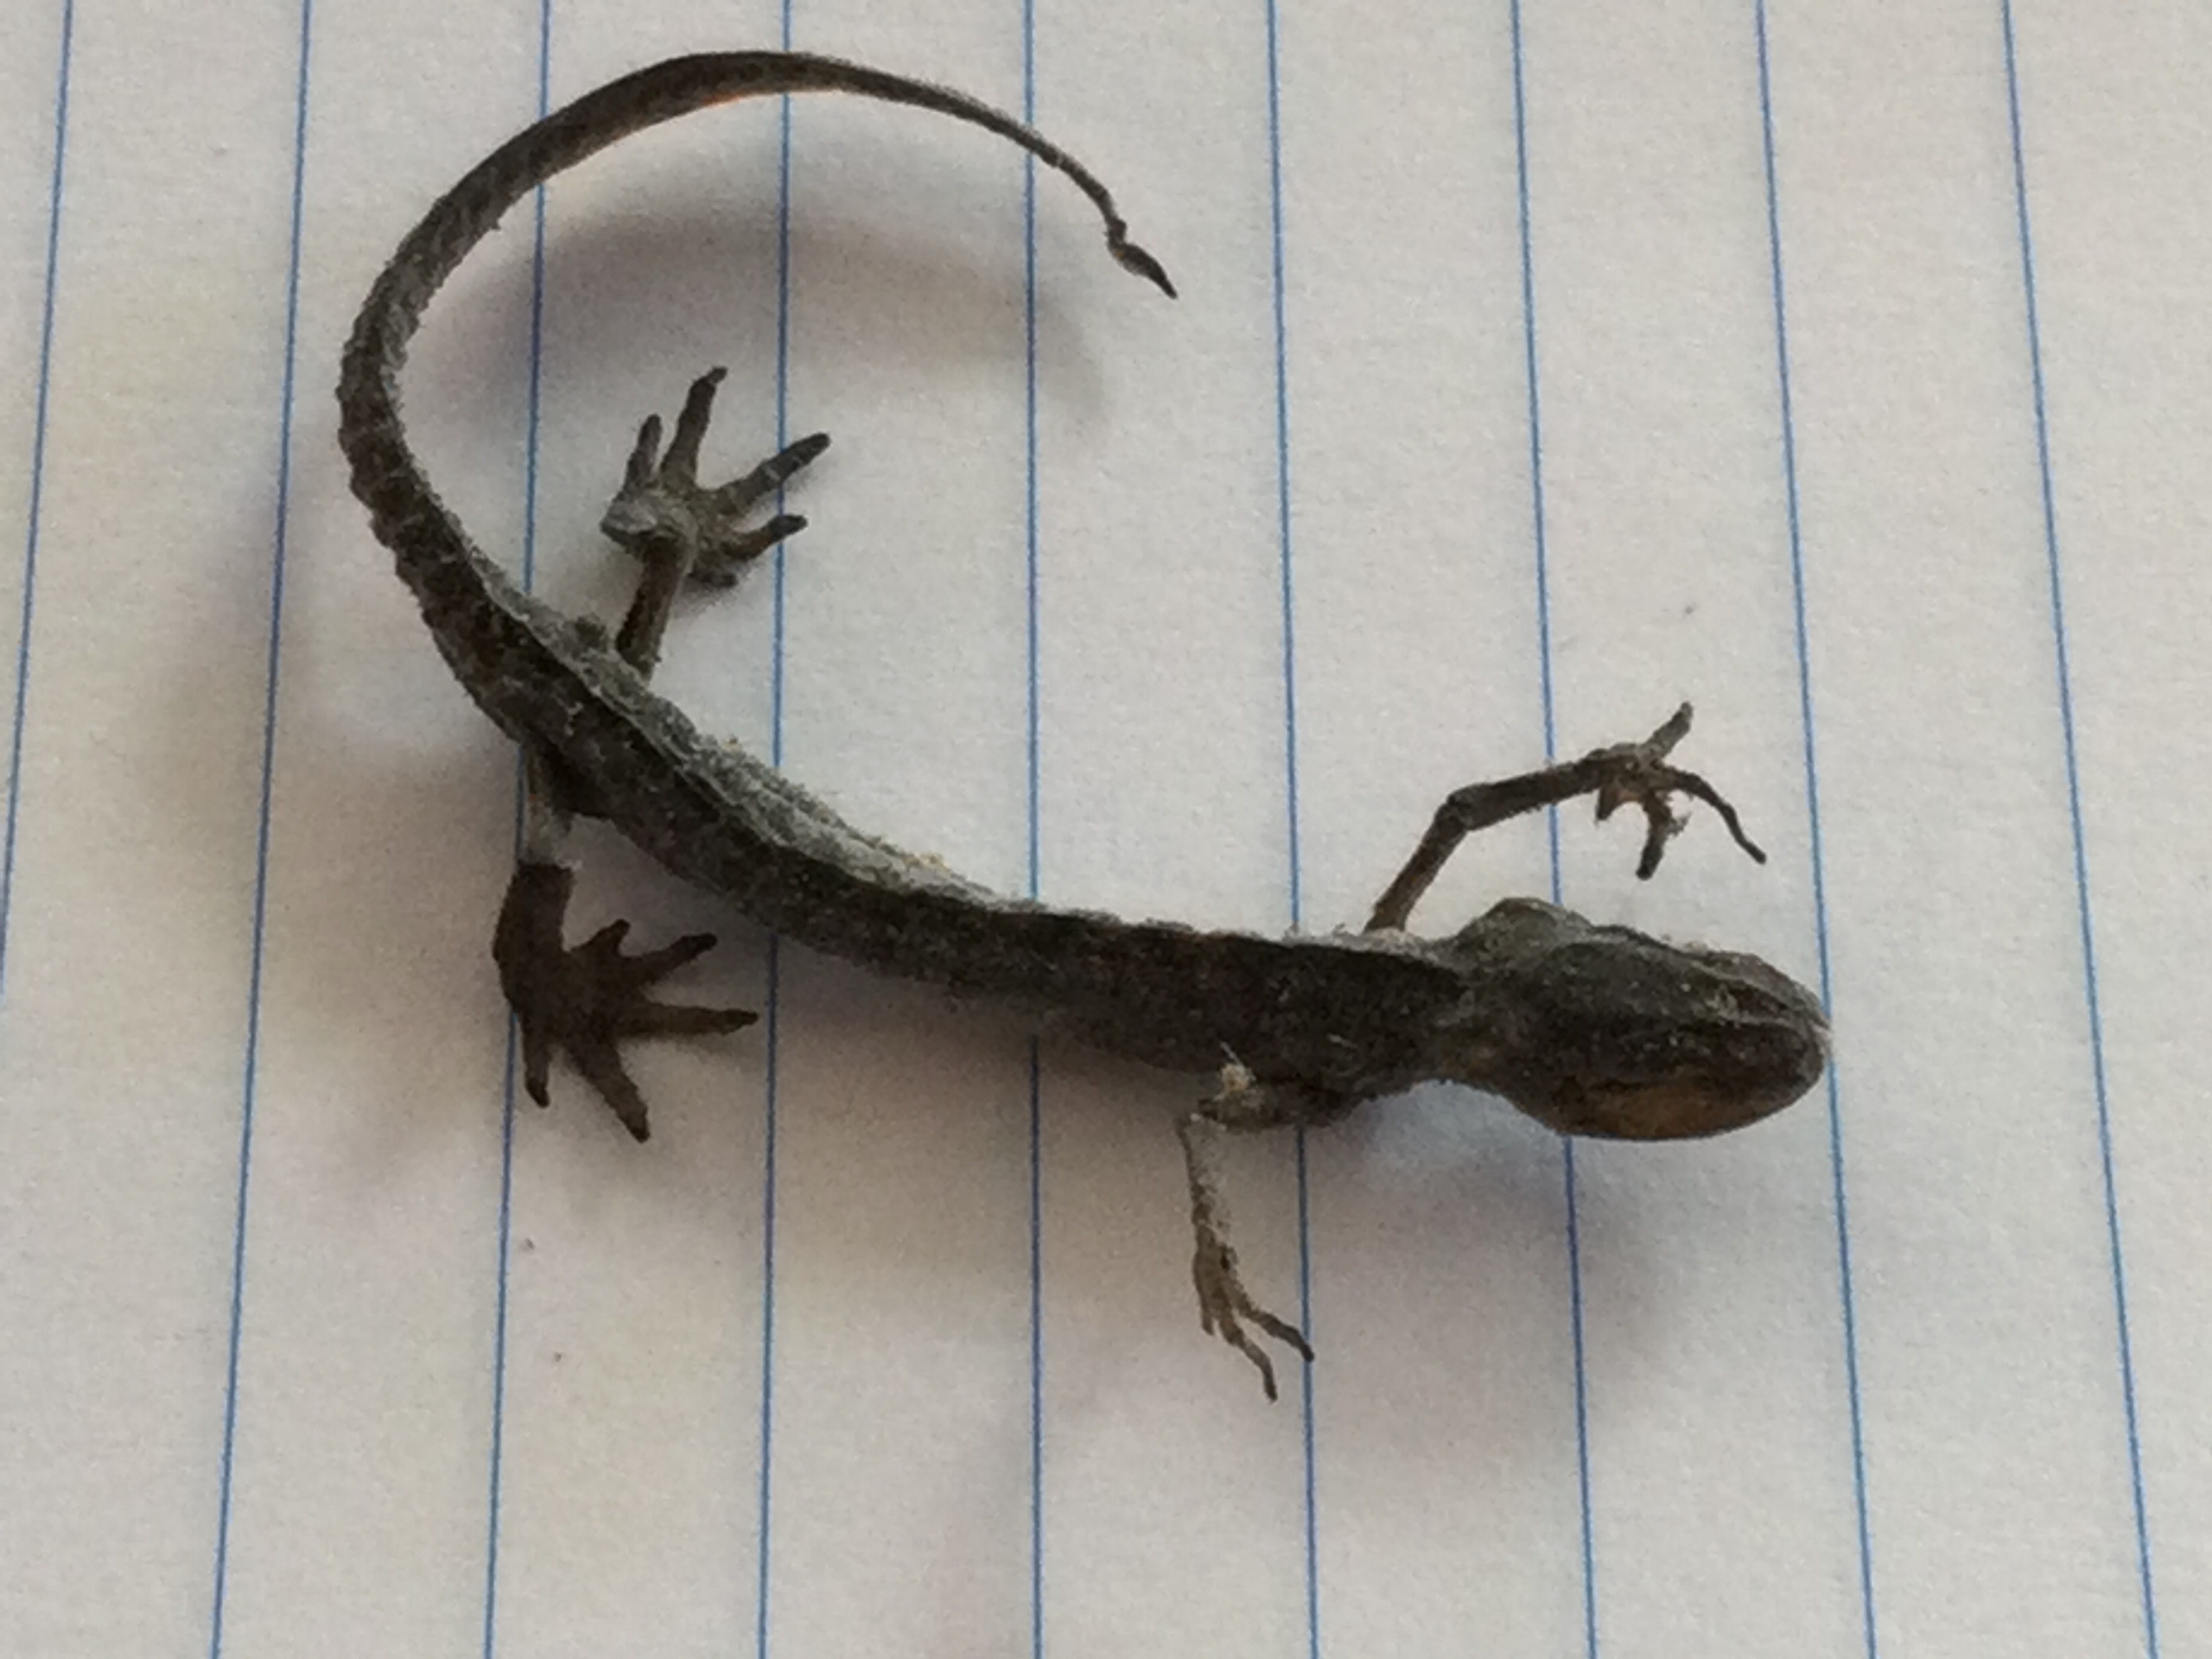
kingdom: Animalia
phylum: Chordata
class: Amphibia
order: Caudata
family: Salamandridae
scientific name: Salamandridae
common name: Egentlige salamandre
